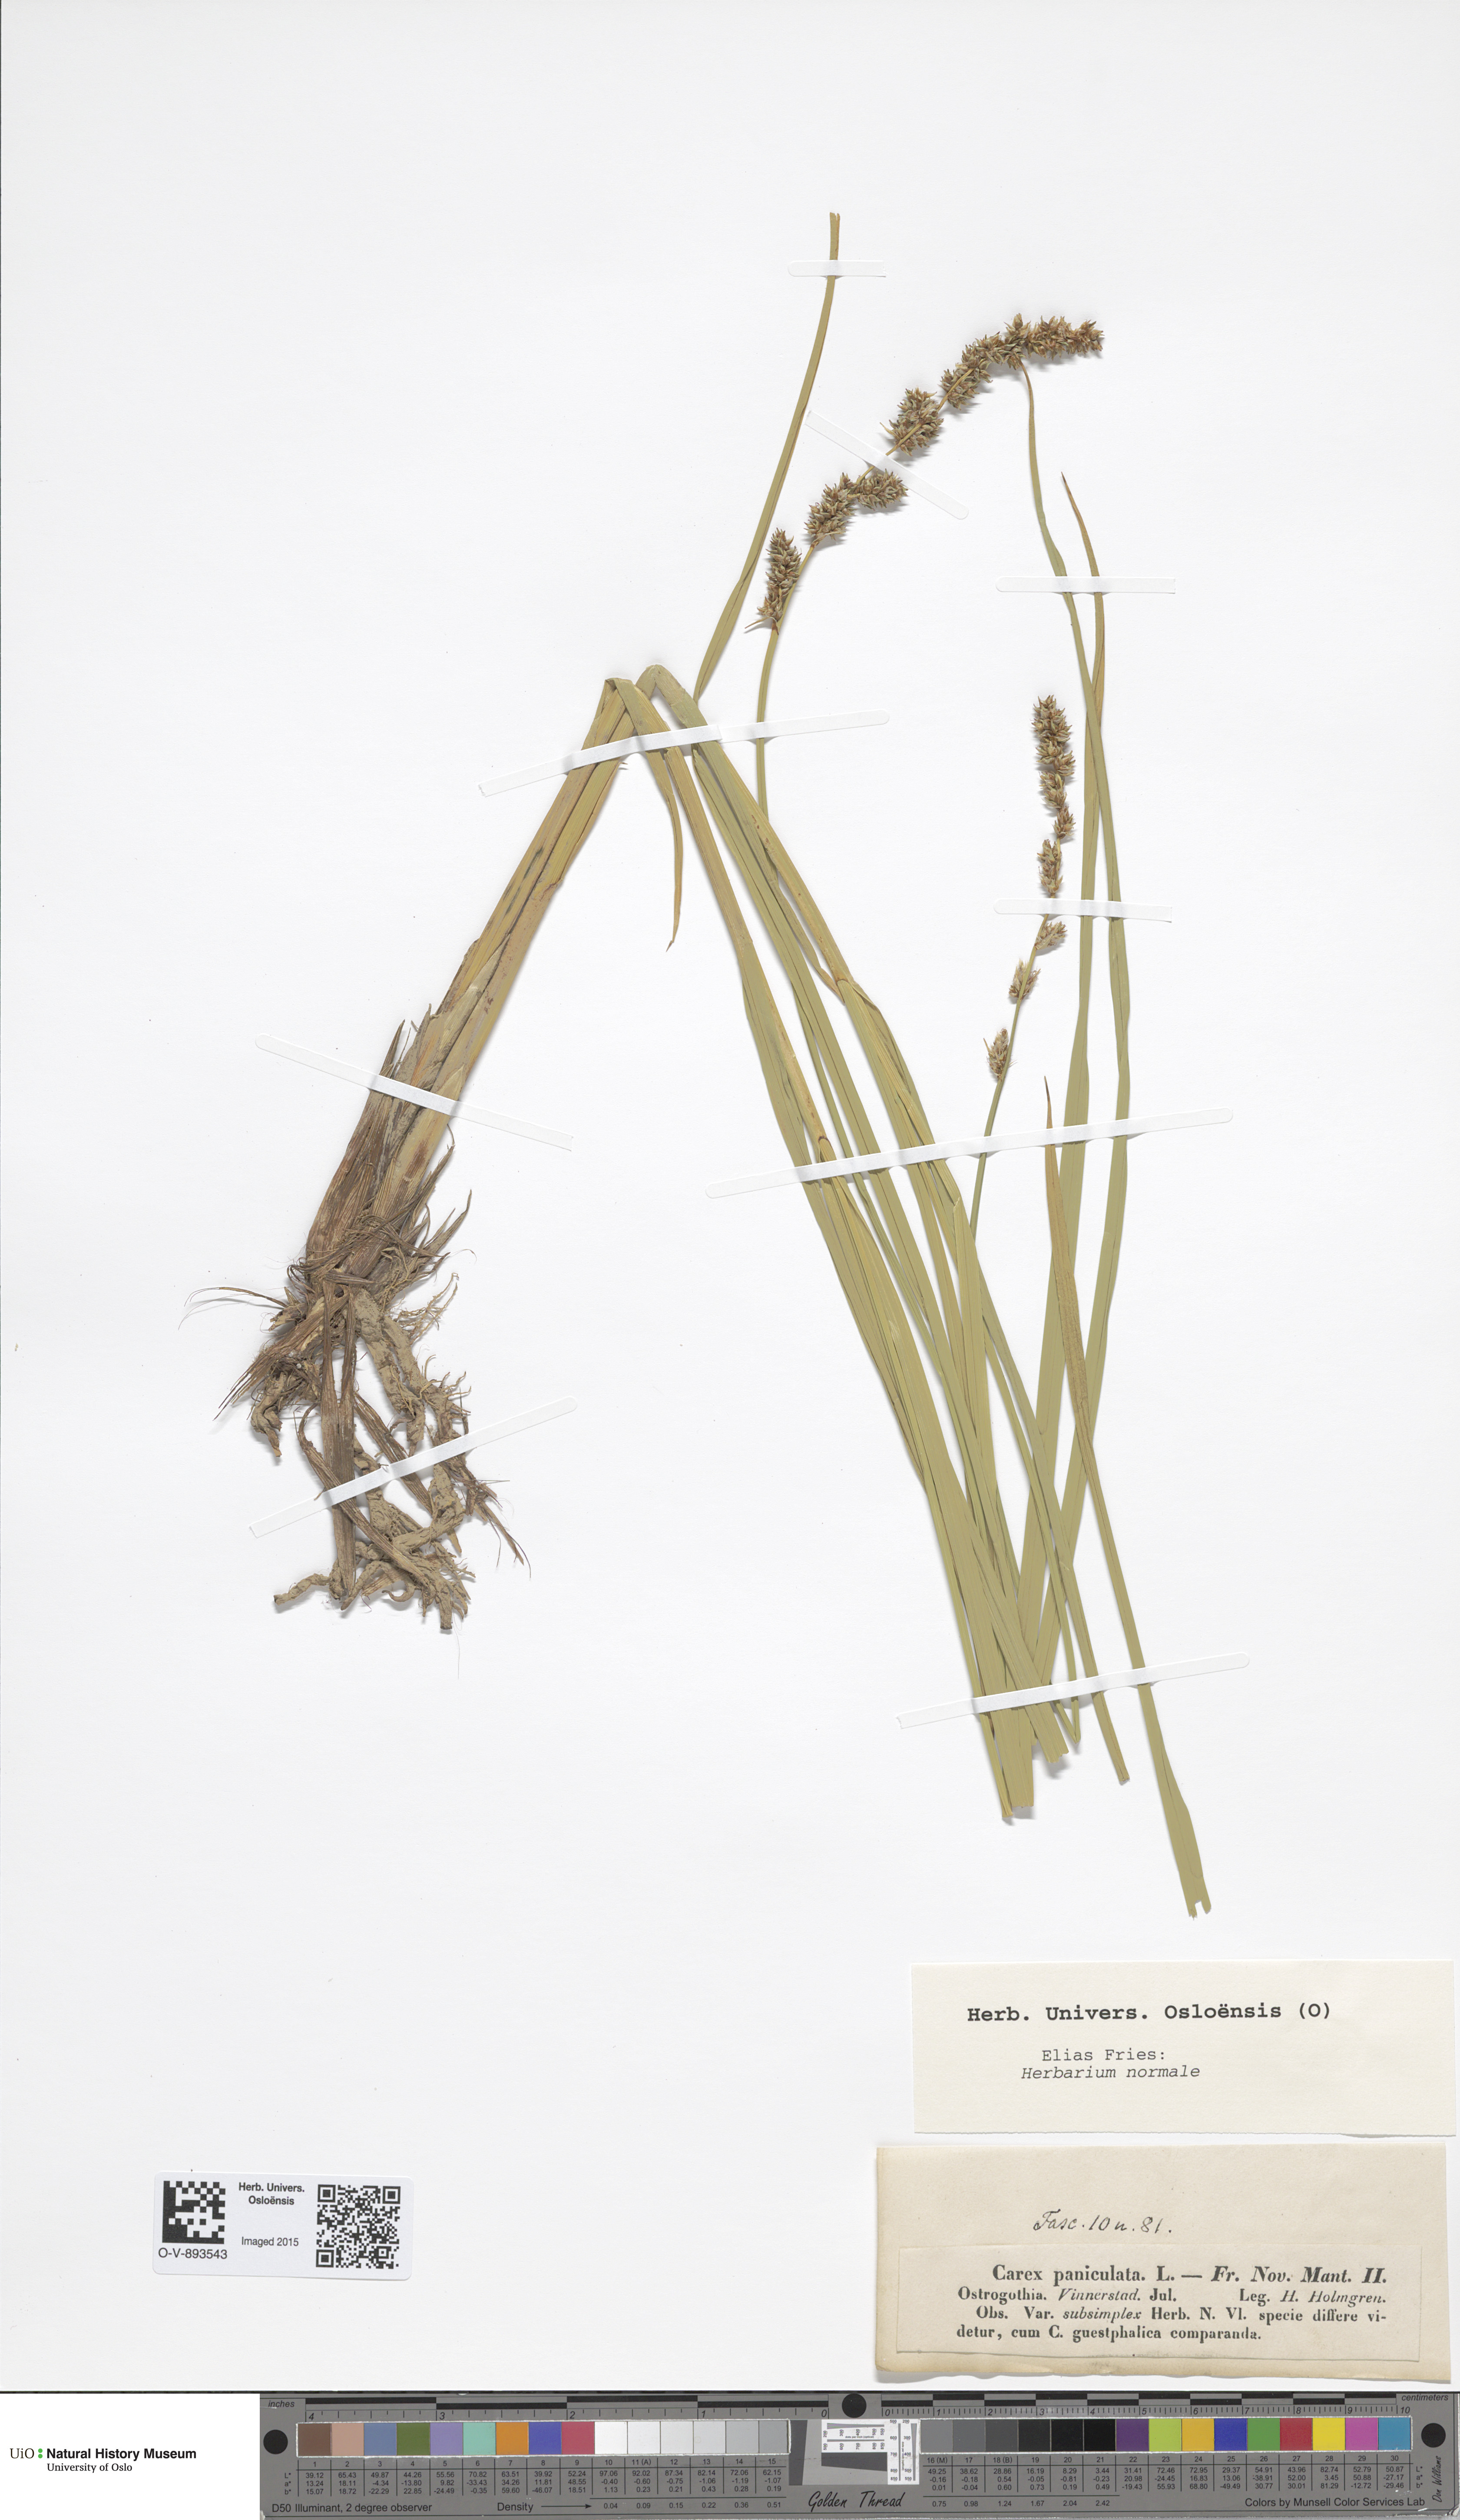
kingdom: Plantae
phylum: Tracheophyta
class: Liliopsida
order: Poales
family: Cyperaceae
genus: Carex
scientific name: Carex paniculata
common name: Greater tussock-sedge
